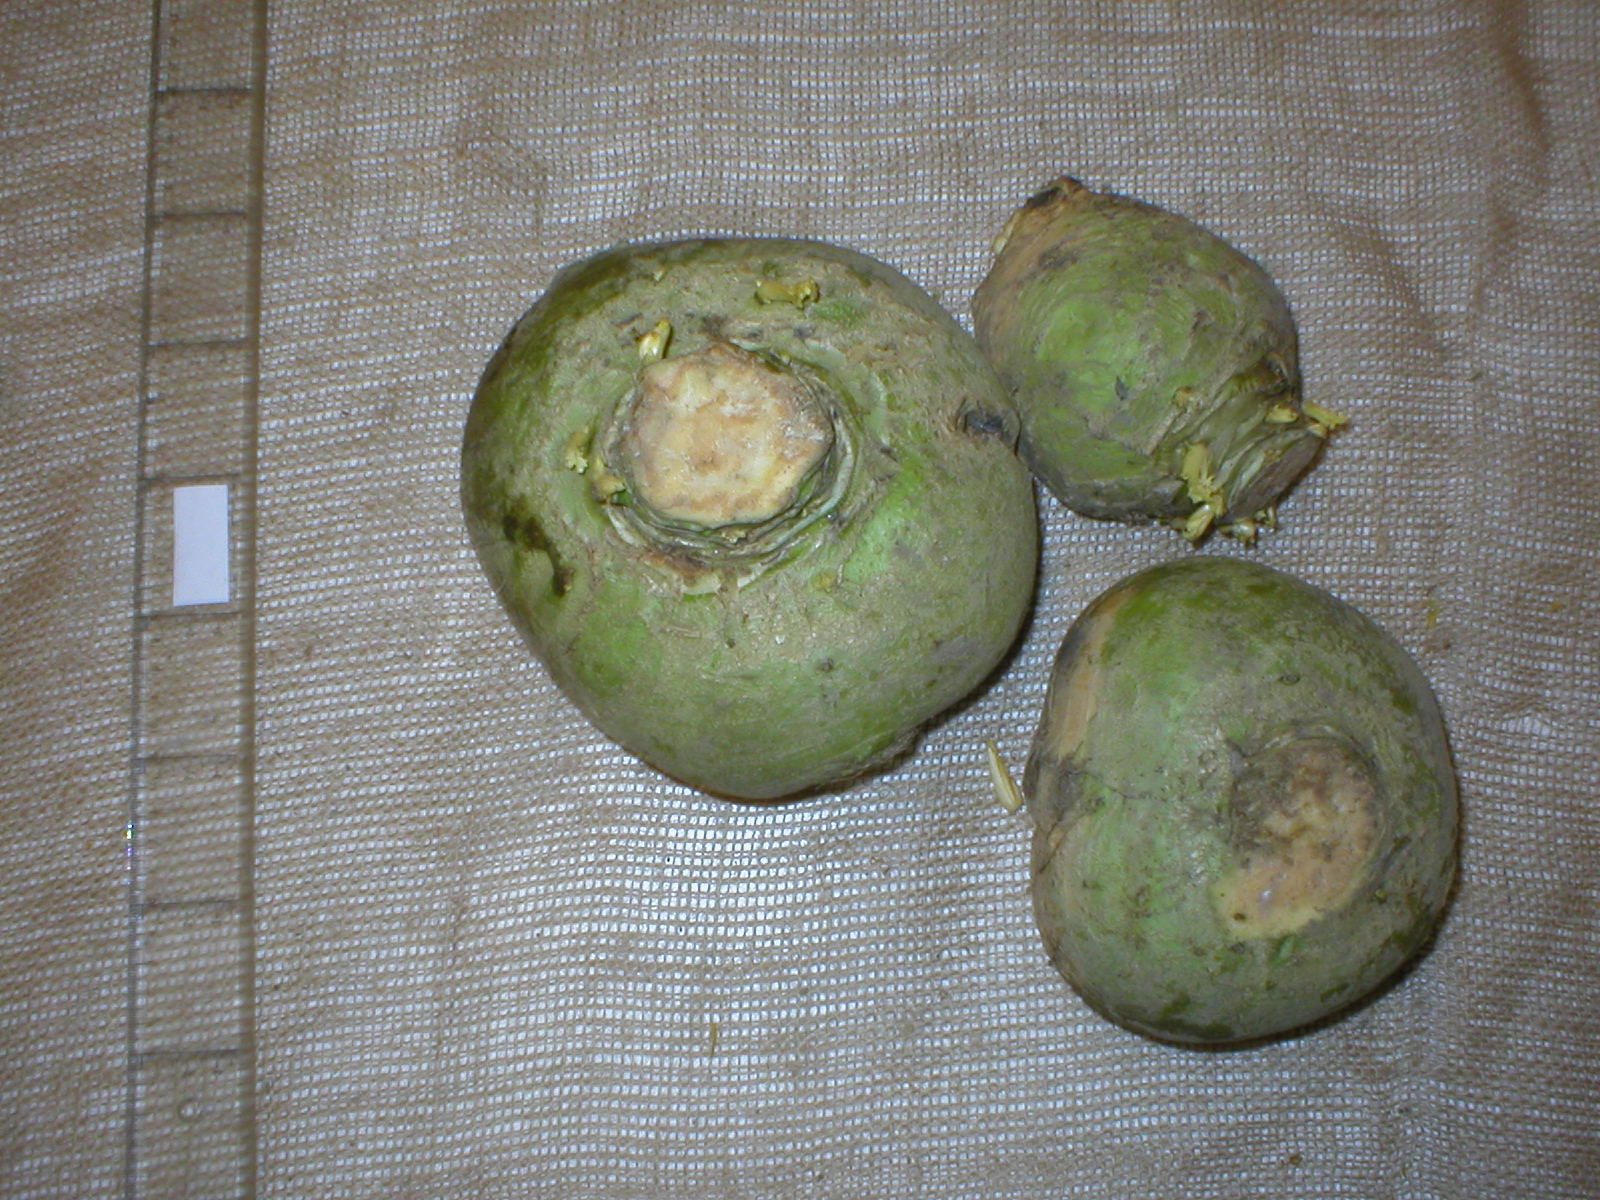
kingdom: Plantae
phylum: Tracheophyta
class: Magnoliopsida
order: Brassicales
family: Brassicaceae
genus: Brassica
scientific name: Brassica napus
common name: Rape
